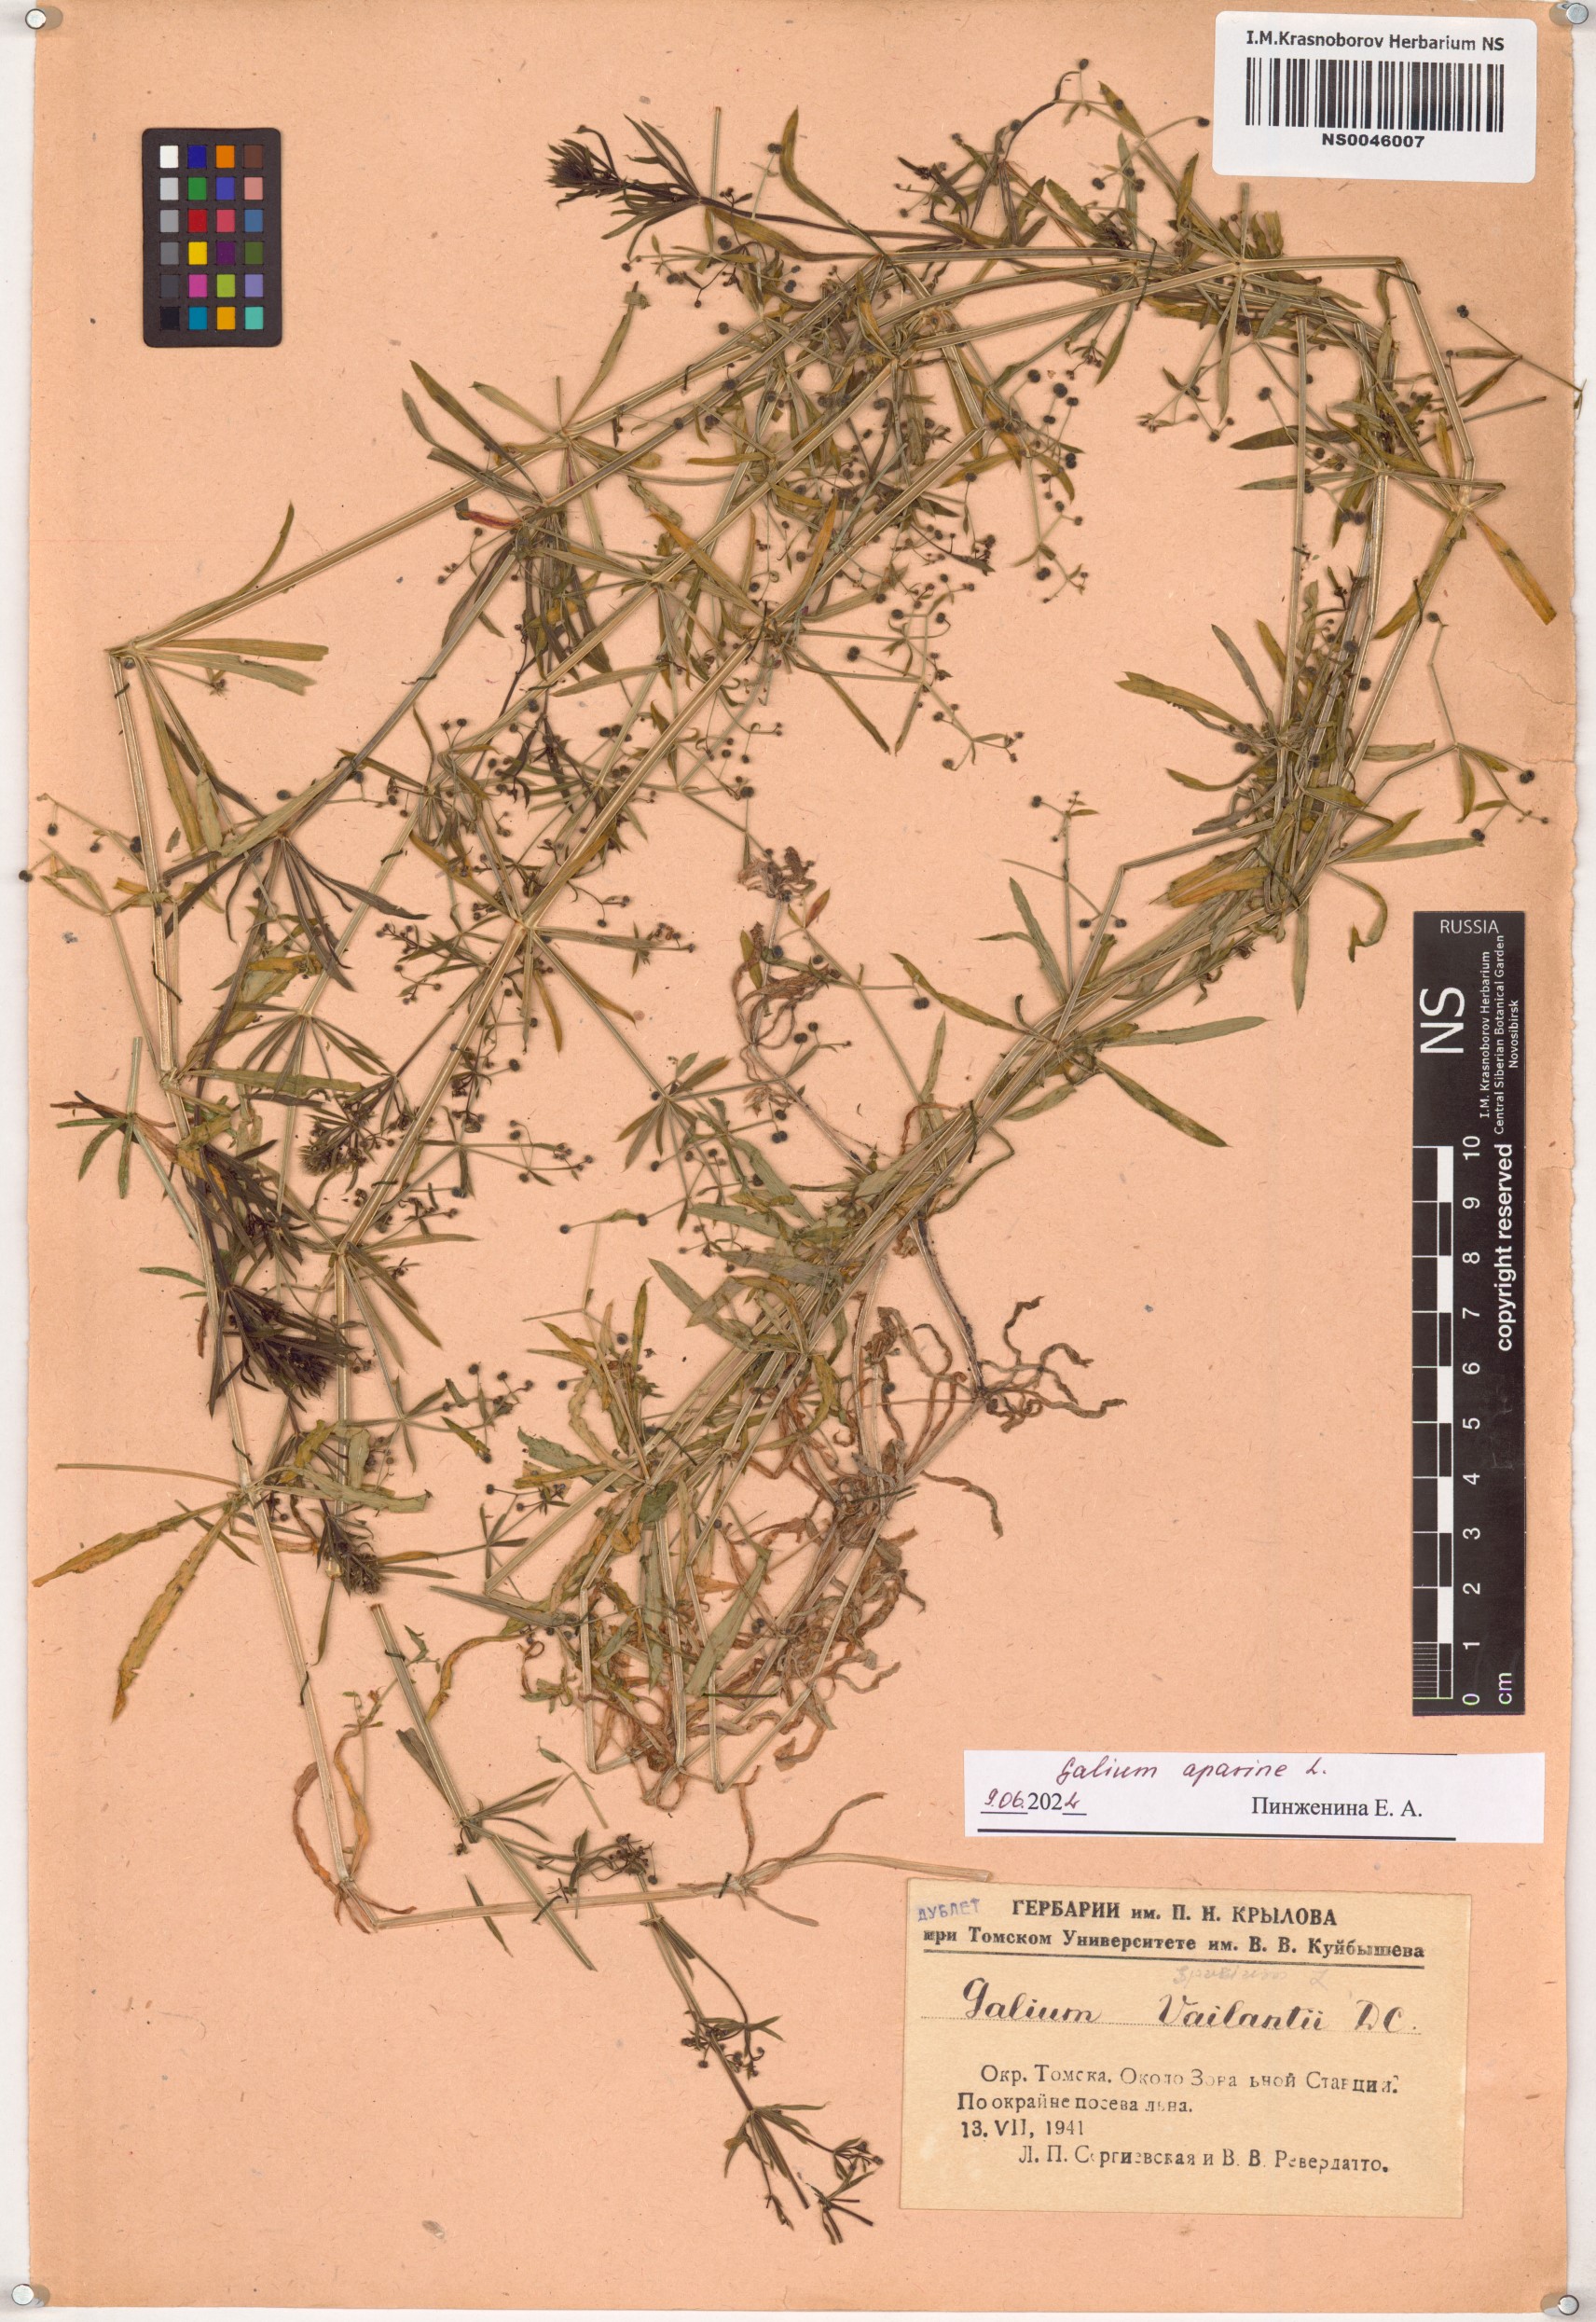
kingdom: Plantae
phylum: Tracheophyta
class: Magnoliopsida
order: Gentianales
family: Rubiaceae
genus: Galium
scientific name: Galium aparine
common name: Cleavers
